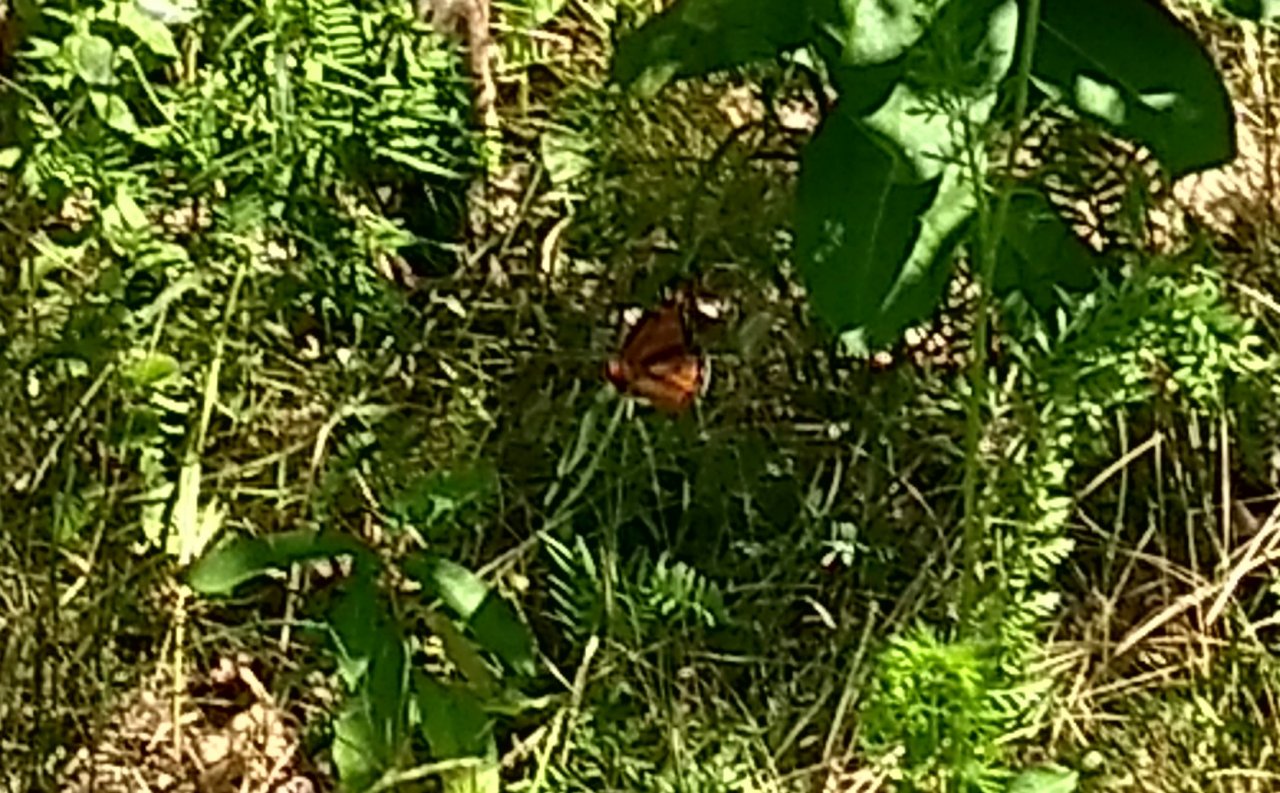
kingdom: Animalia
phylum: Arthropoda
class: Insecta
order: Lepidoptera
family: Nymphalidae
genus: Danaus
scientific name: Danaus plexippus
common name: Monarch
